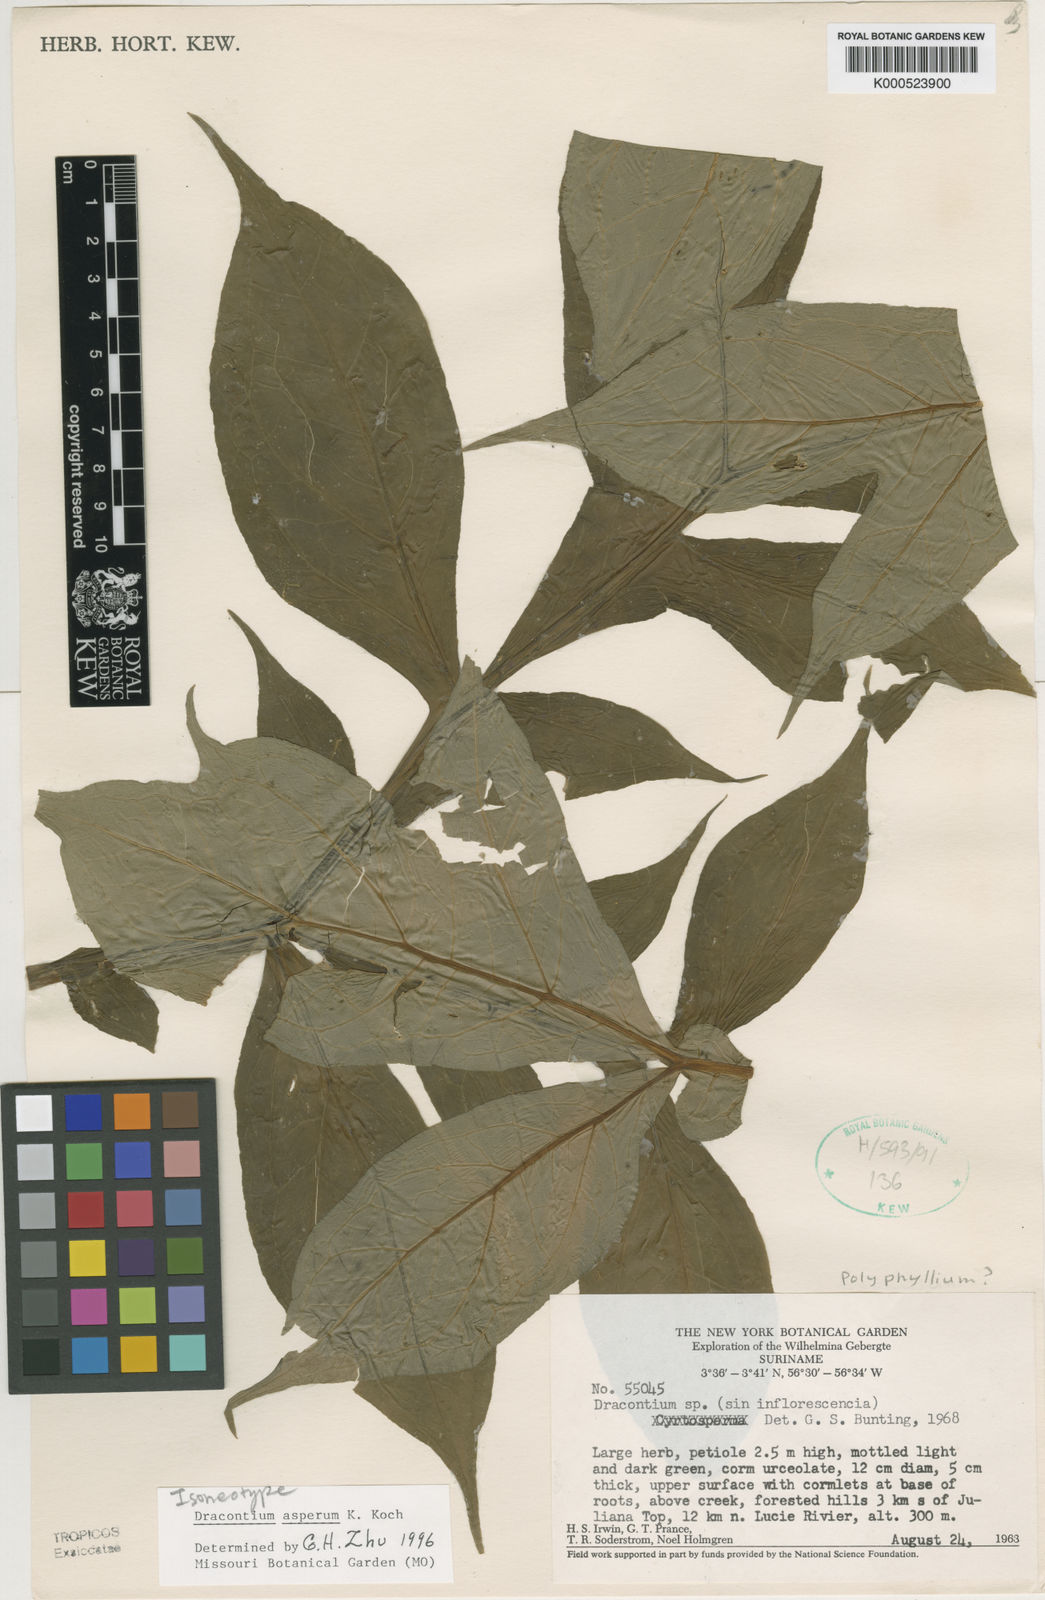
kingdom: Plantae
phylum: Tracheophyta
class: Liliopsida
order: Alismatales
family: Araceae
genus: Dracontium
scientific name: Dracontium asperum
